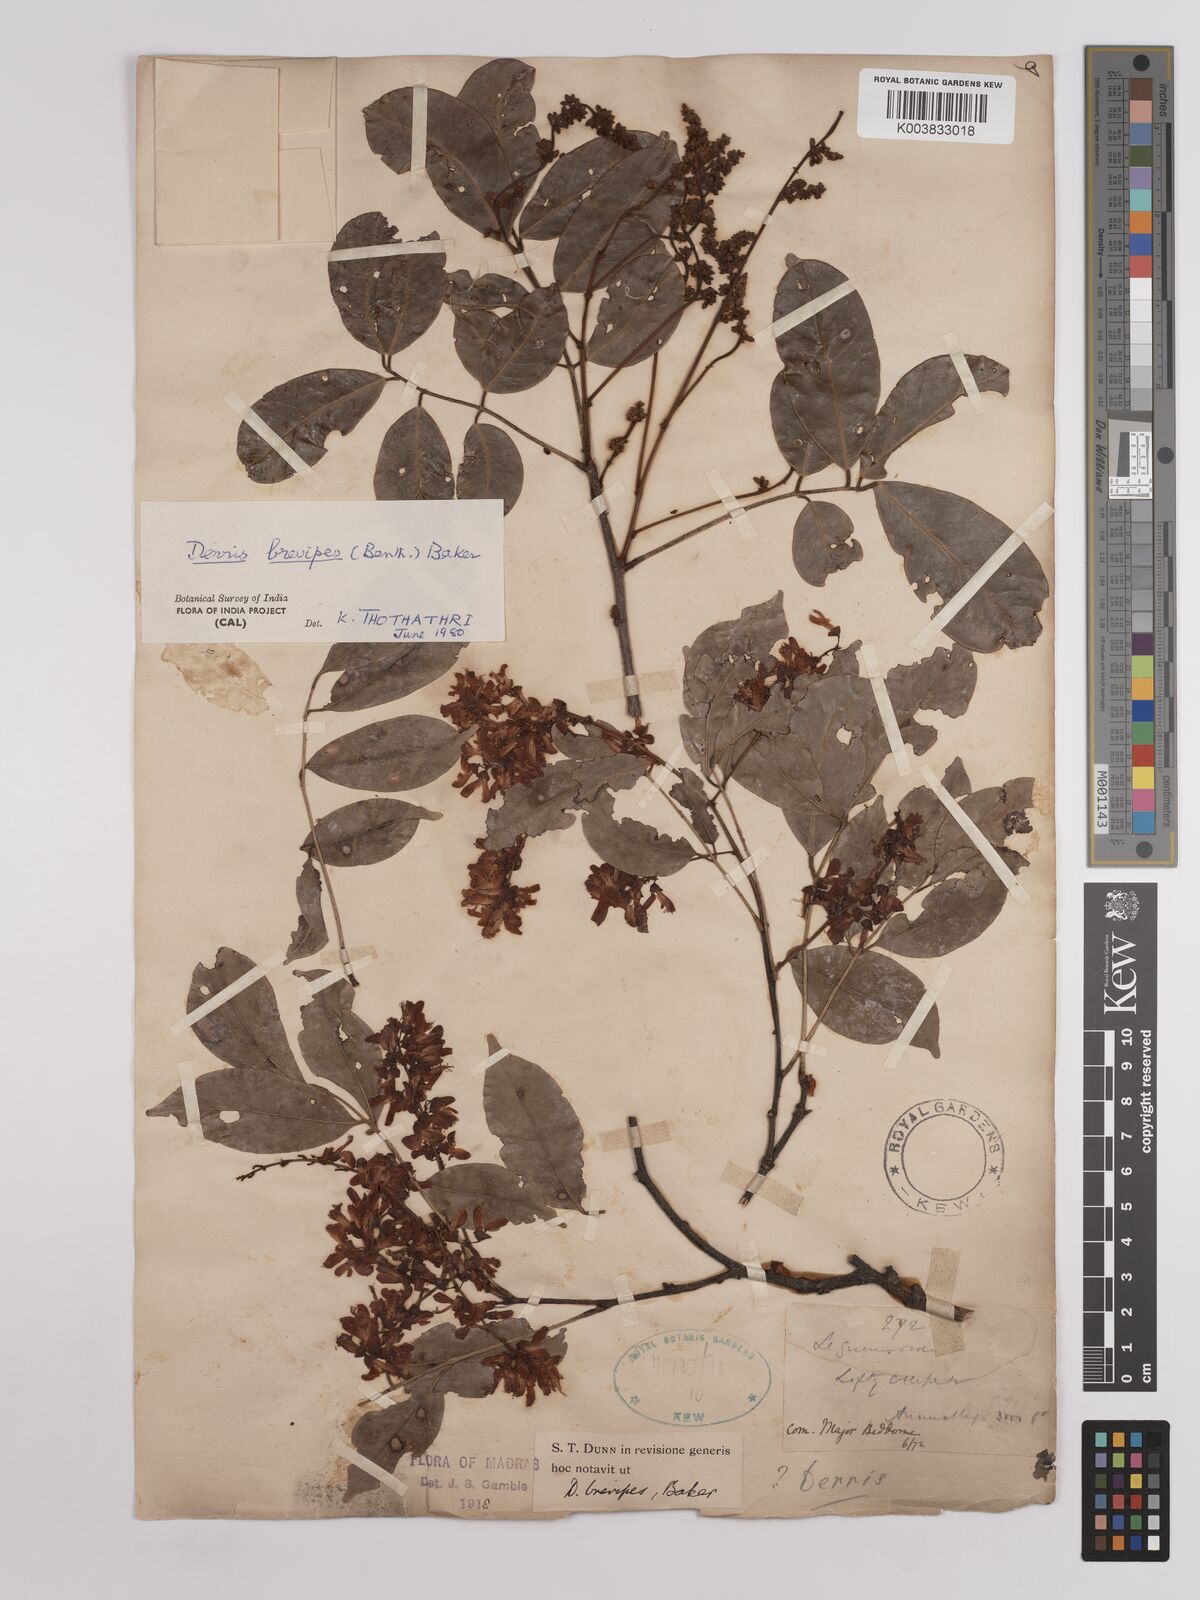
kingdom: Plantae
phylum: Tracheophyta
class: Magnoliopsida
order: Fabales
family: Fabaceae
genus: Derris
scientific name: Derris brevipes
